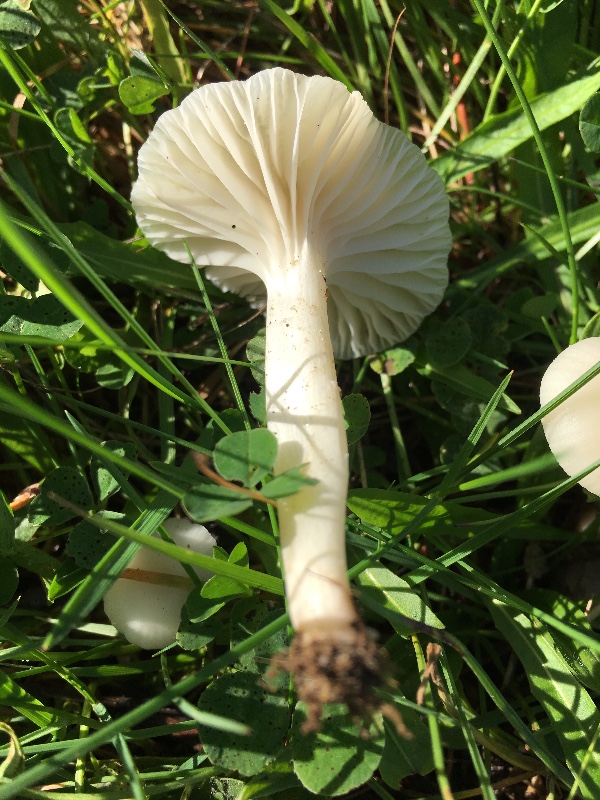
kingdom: Fungi
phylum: Basidiomycota
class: Agaricomycetes
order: Agaricales
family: Hygrophoraceae
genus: Cuphophyllus
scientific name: Cuphophyllus virgineus
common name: snehvid vokshat
